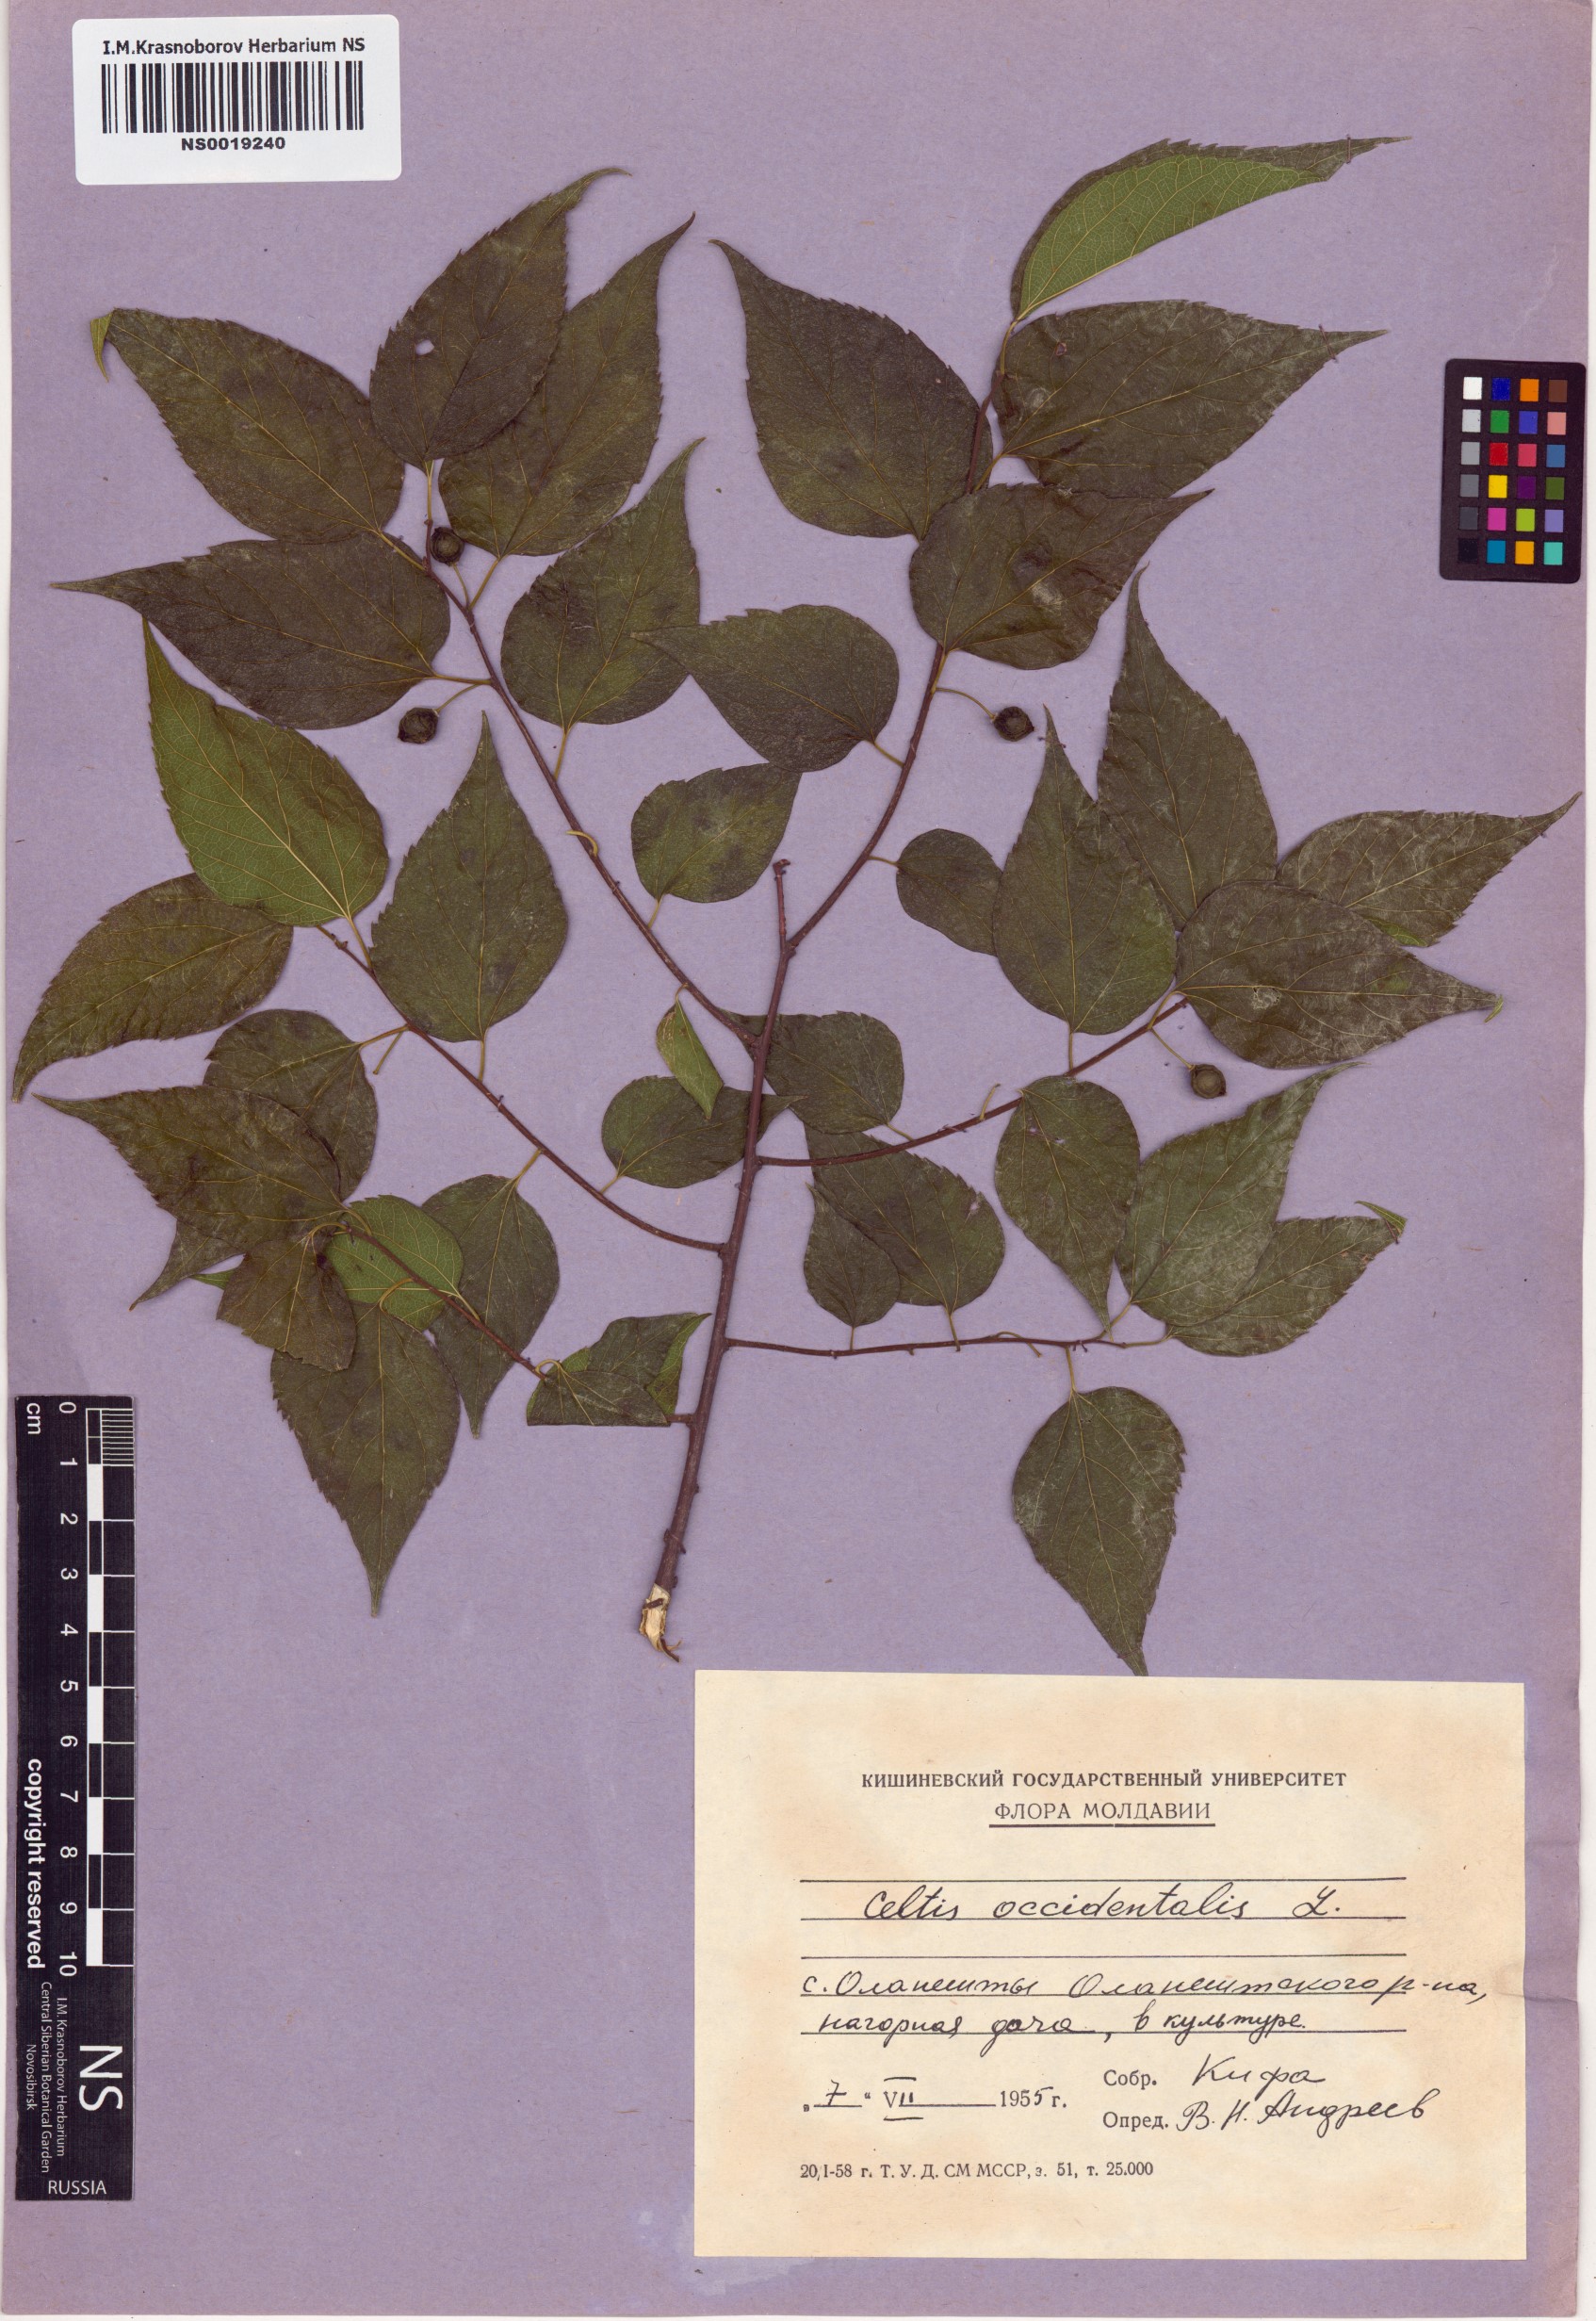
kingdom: Plantae
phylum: Tracheophyta
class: Magnoliopsida
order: Rosales
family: Cannabaceae
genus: Celtis
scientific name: Celtis occidentalis
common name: Common hackberry
